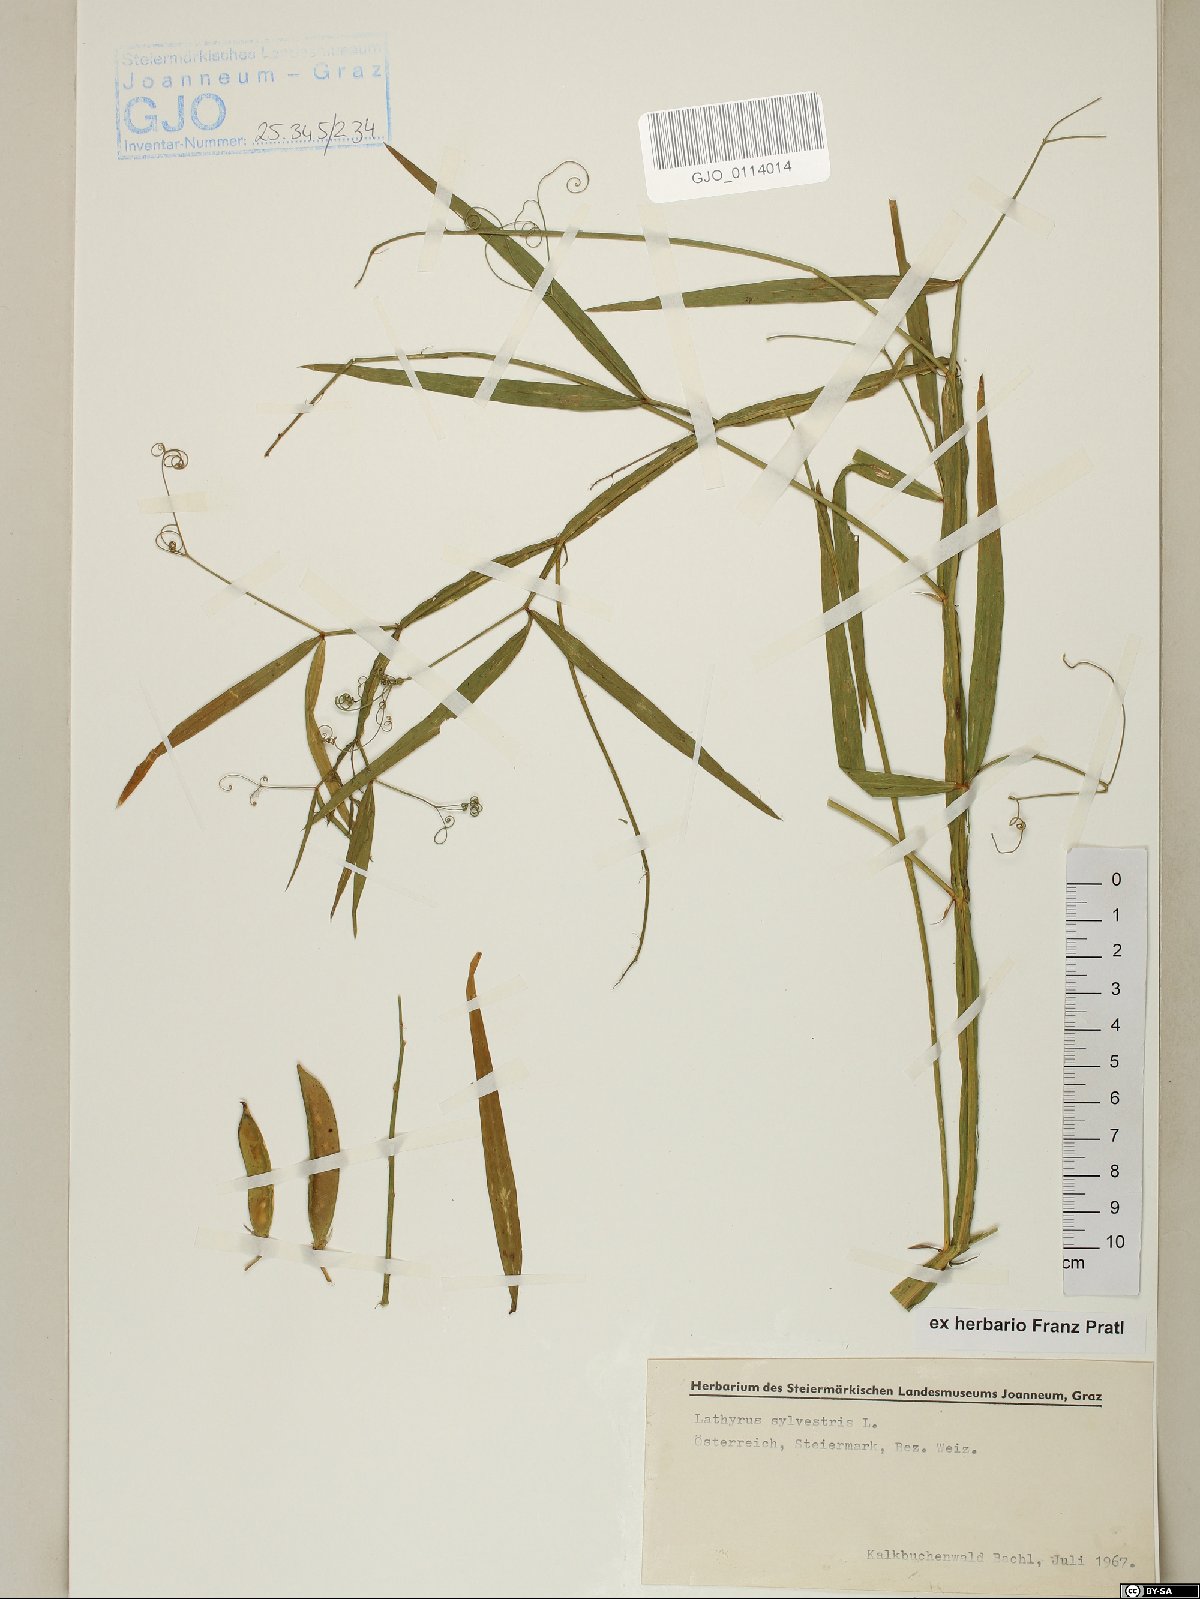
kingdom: Plantae
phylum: Tracheophyta
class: Magnoliopsida
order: Fabales
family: Fabaceae
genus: Lathyrus
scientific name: Lathyrus sylvestris
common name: Flat pea
